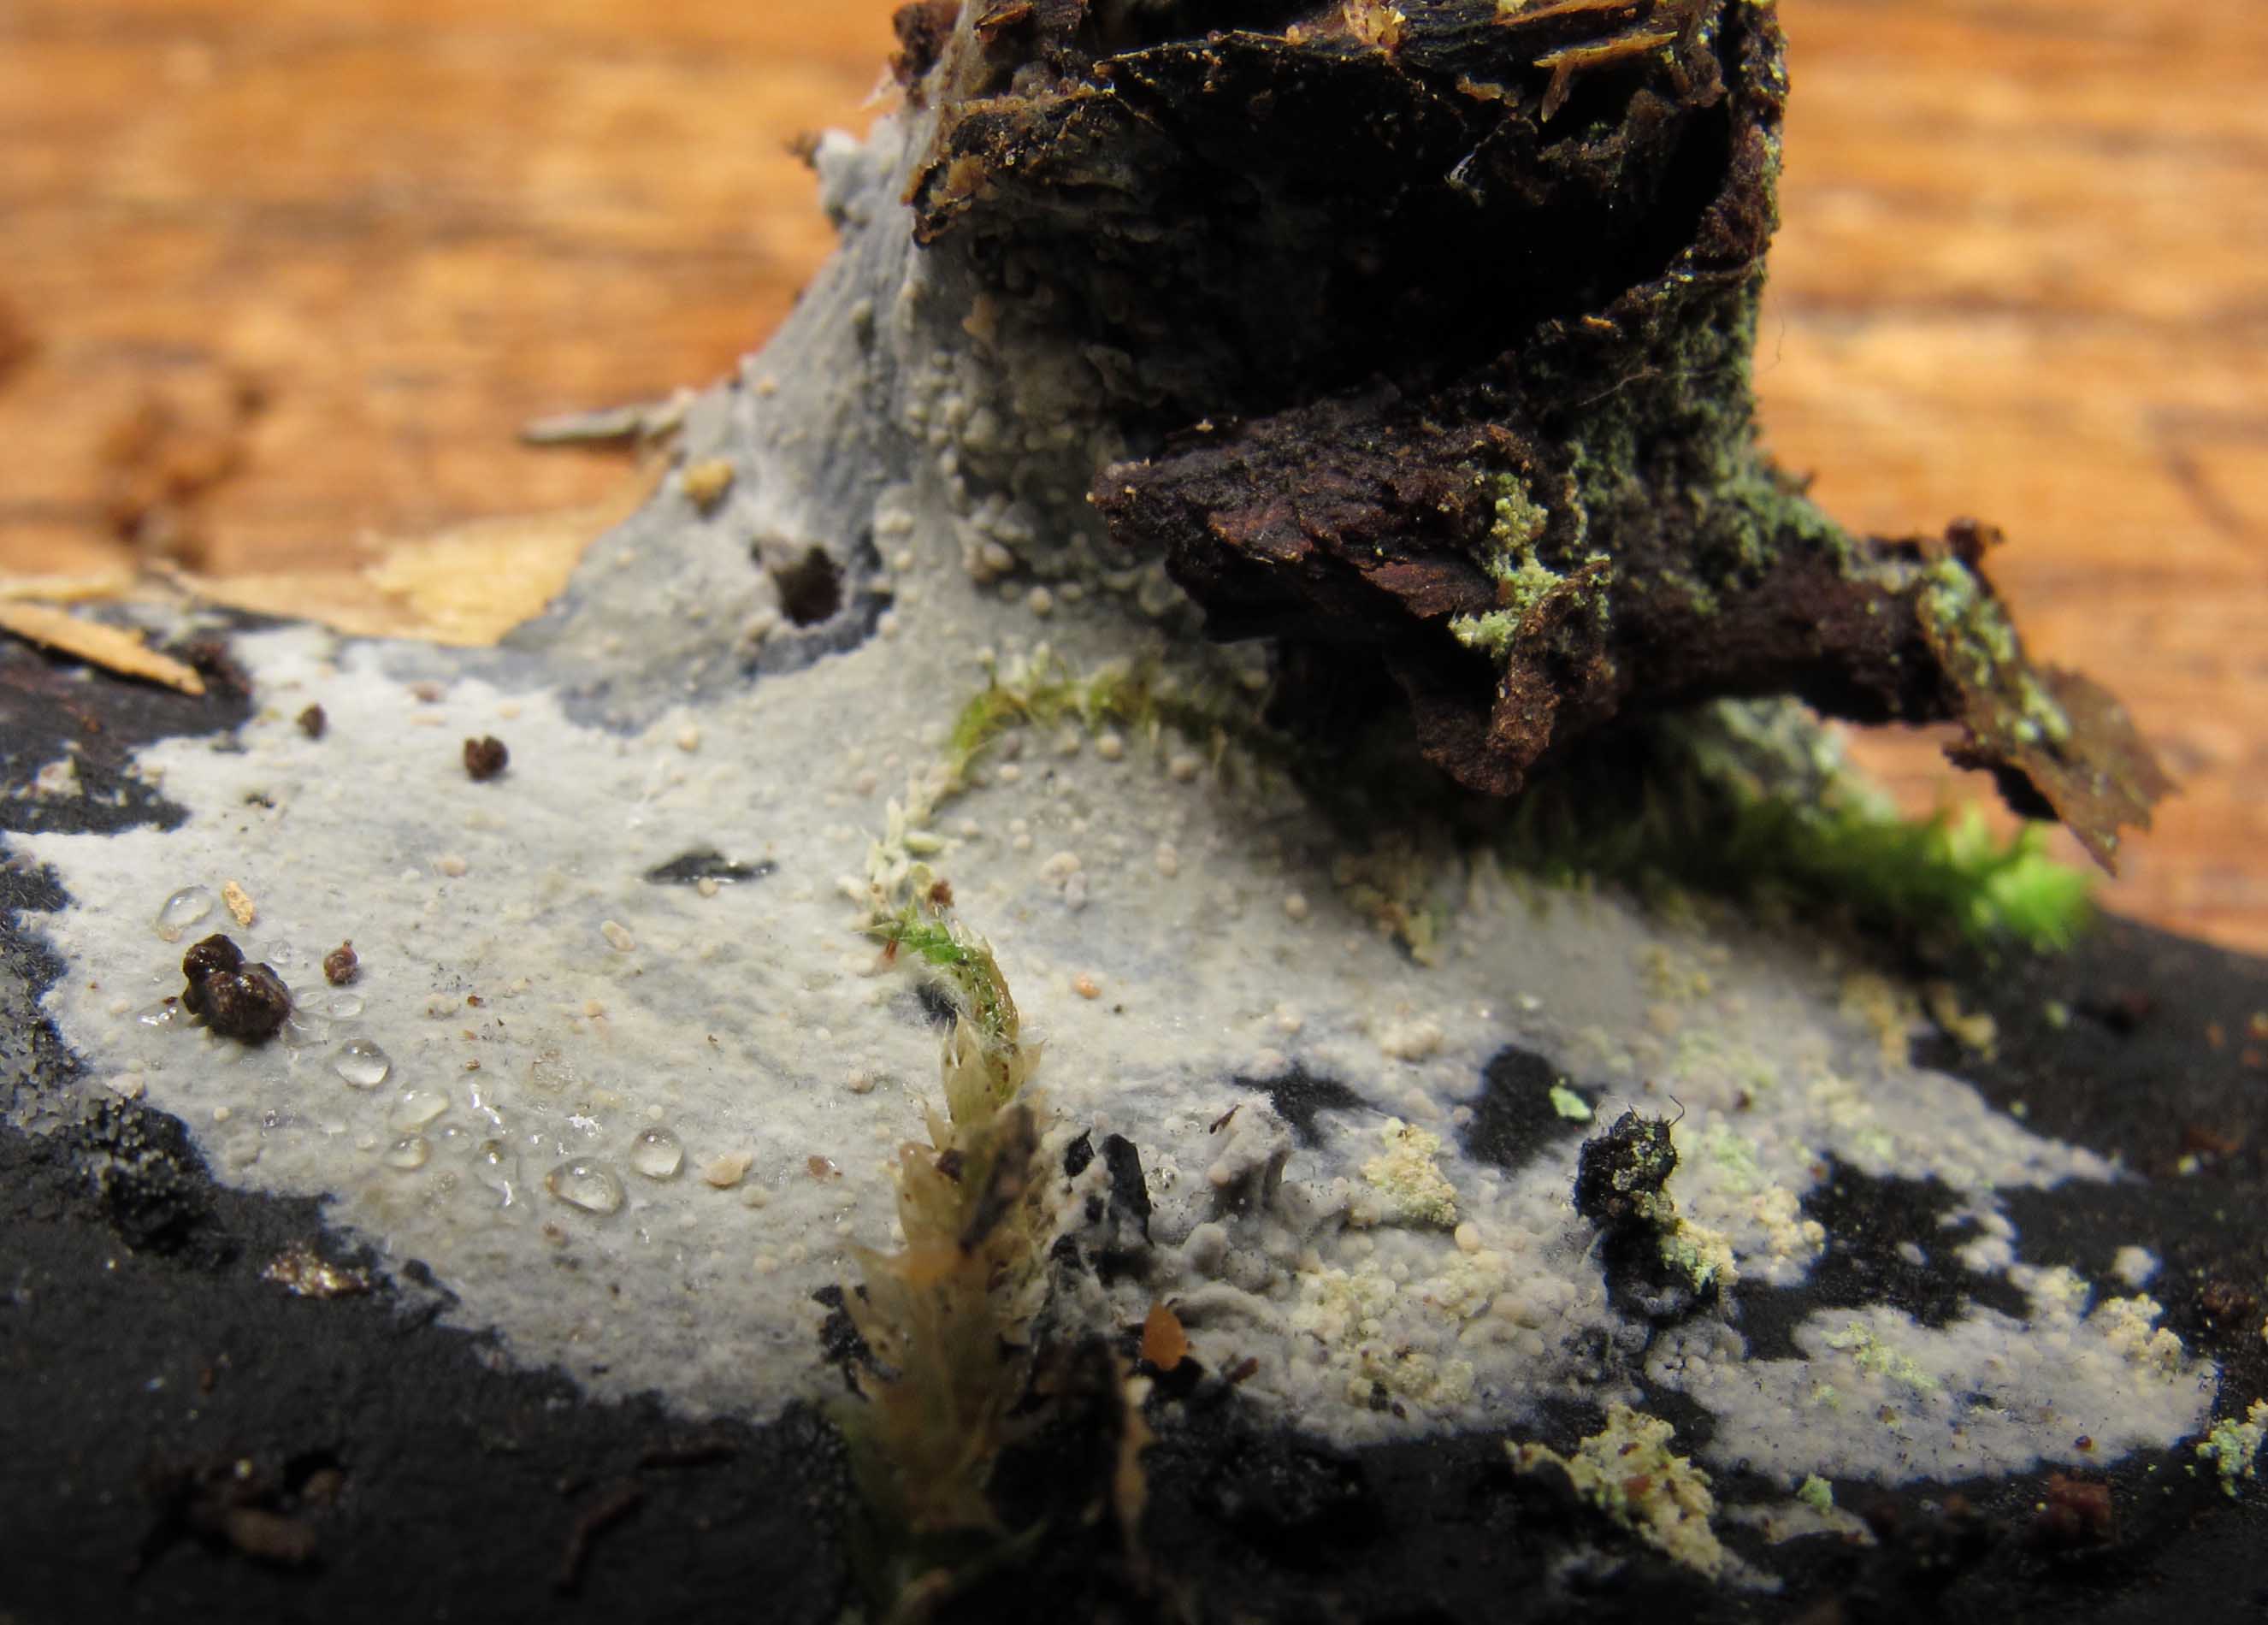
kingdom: Fungi
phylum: Basidiomycota
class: Tremellomycetes
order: Tremellales
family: Exidiaceae
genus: Basidiodendron
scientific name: Basidiodendron
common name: rækkebævresvamp
